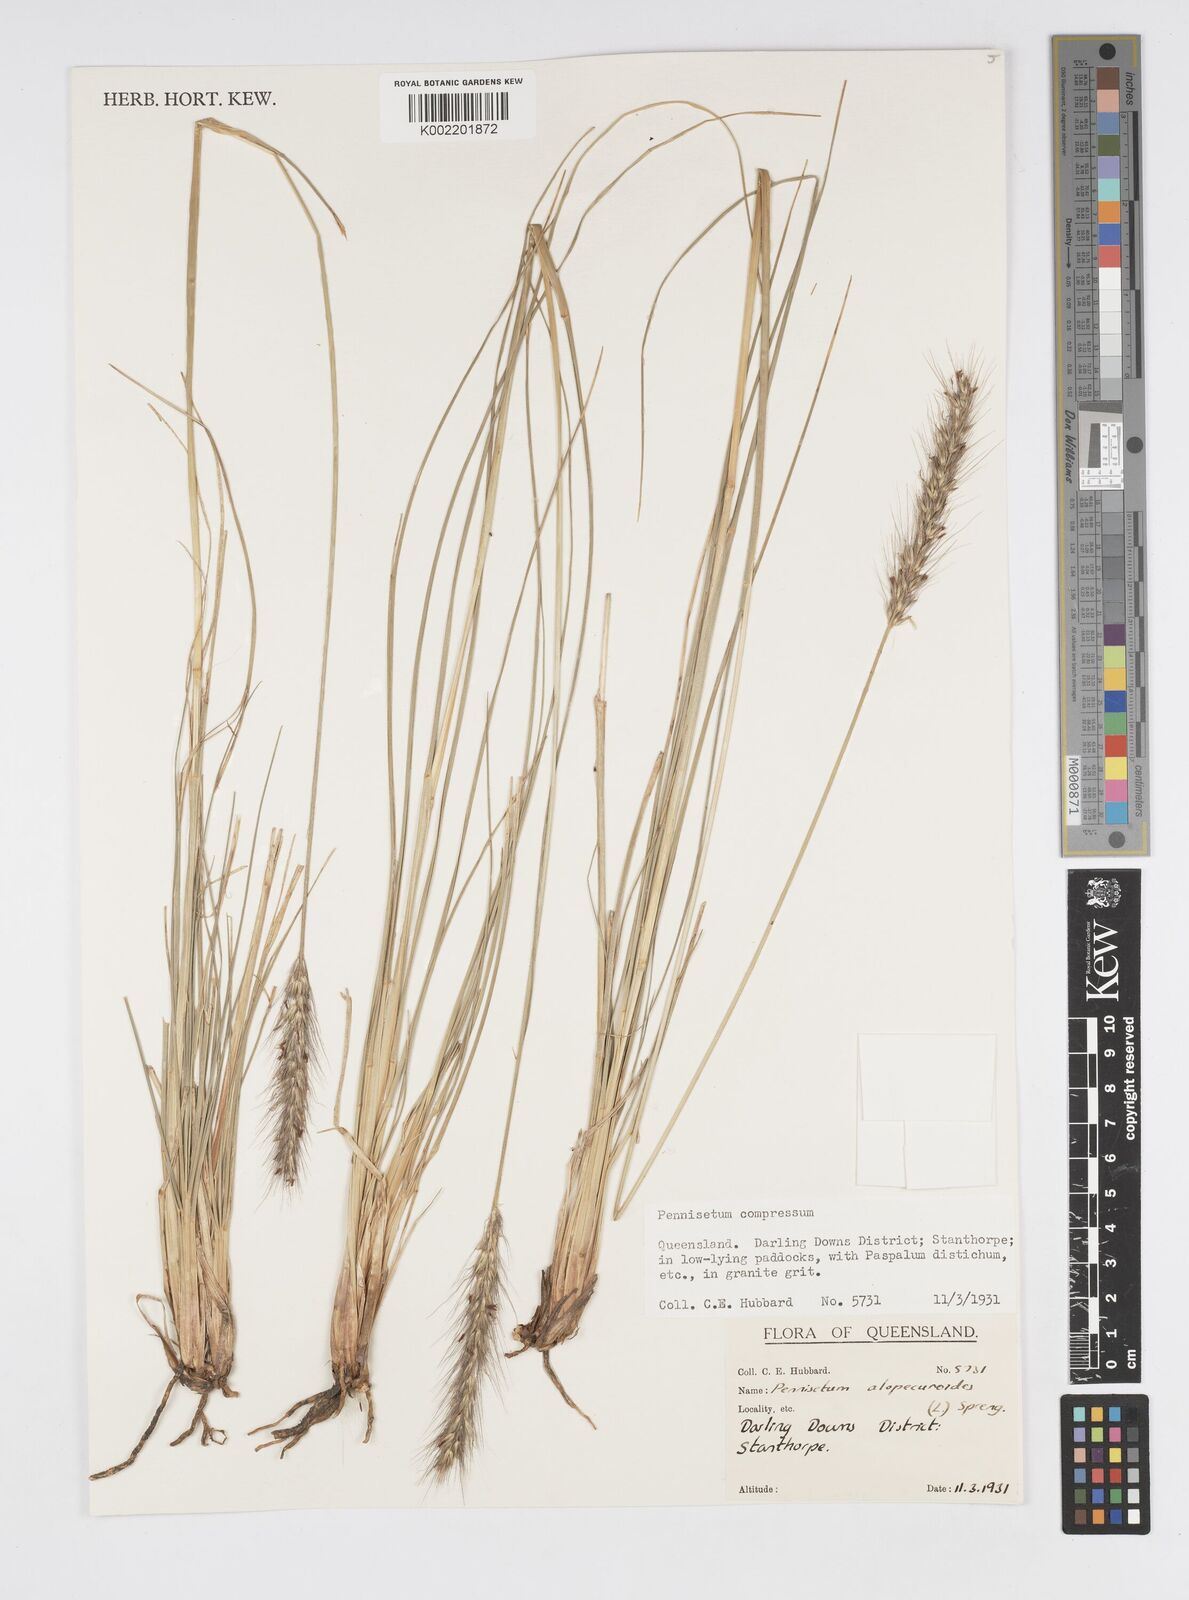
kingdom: Plantae
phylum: Tracheophyta
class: Liliopsida
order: Poales
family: Poaceae
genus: Cenchrus
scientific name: Cenchrus alopecuroides
